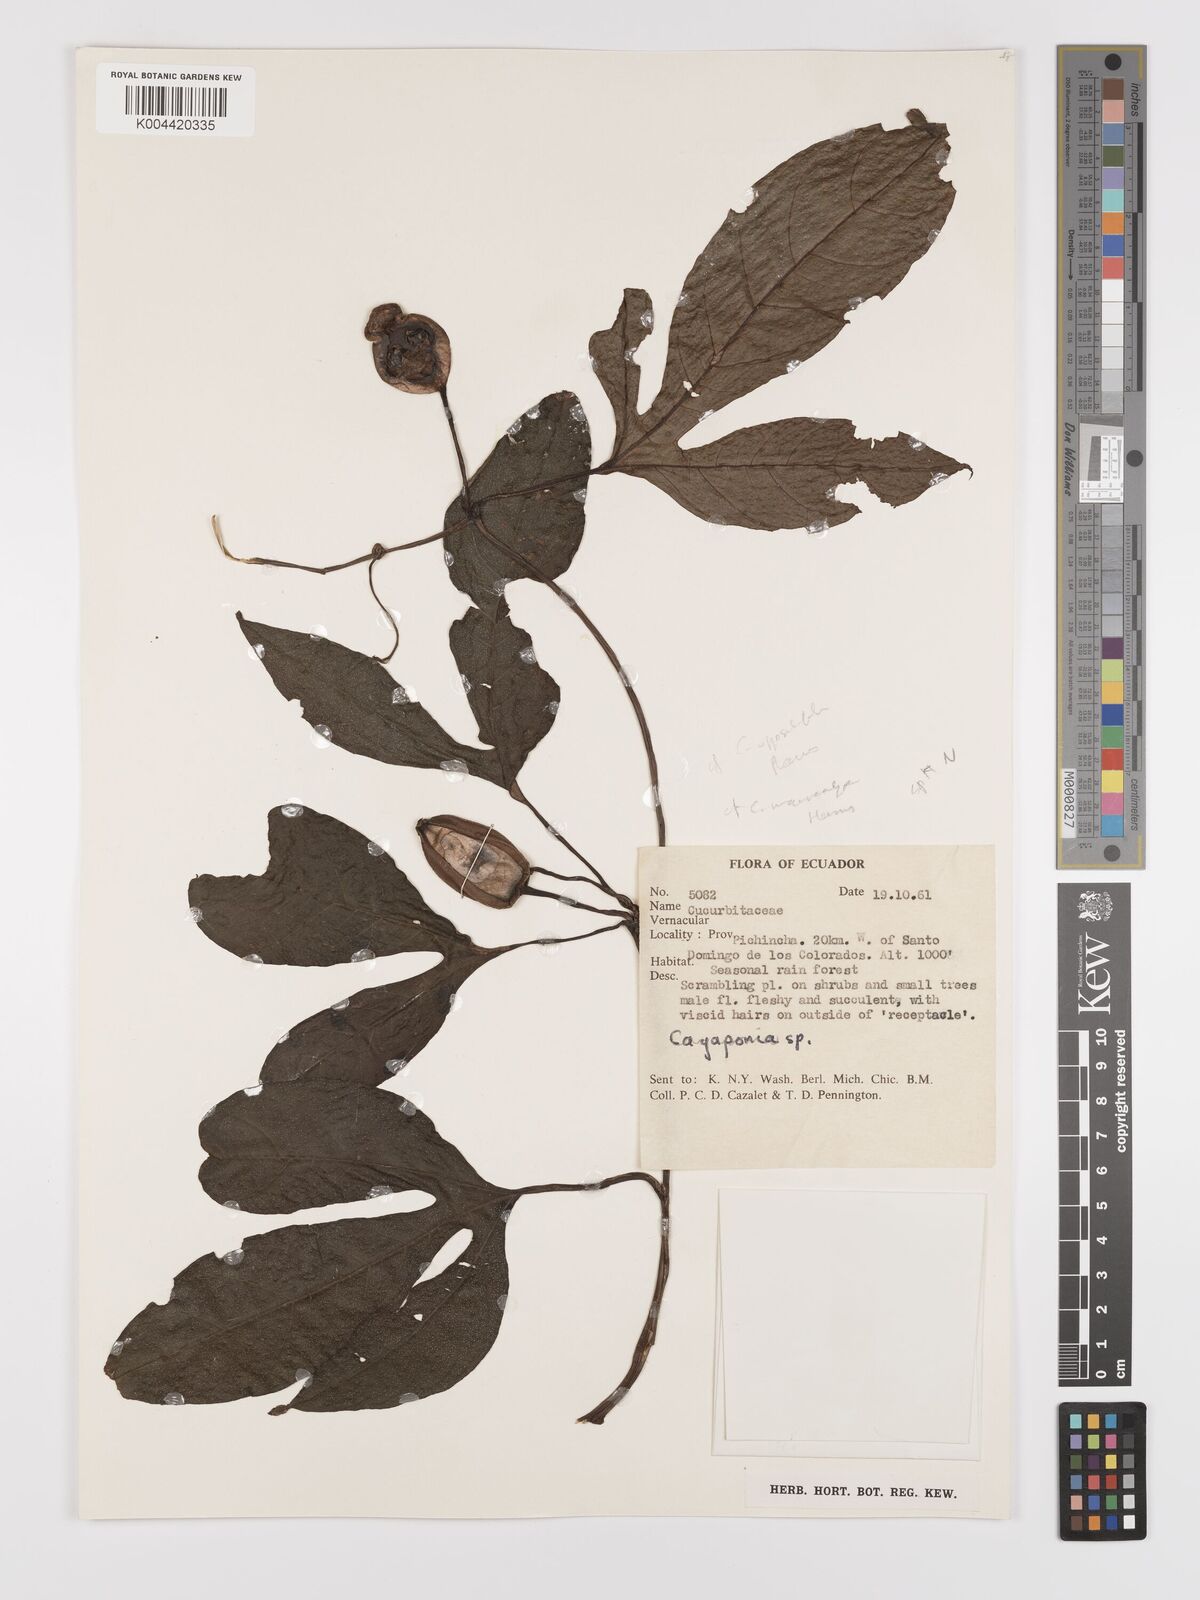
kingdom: Plantae
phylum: Tracheophyta
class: Magnoliopsida
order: Cucurbitales
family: Cucurbitaceae
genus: Cayaponia
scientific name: Cayaponia macrocalyx
